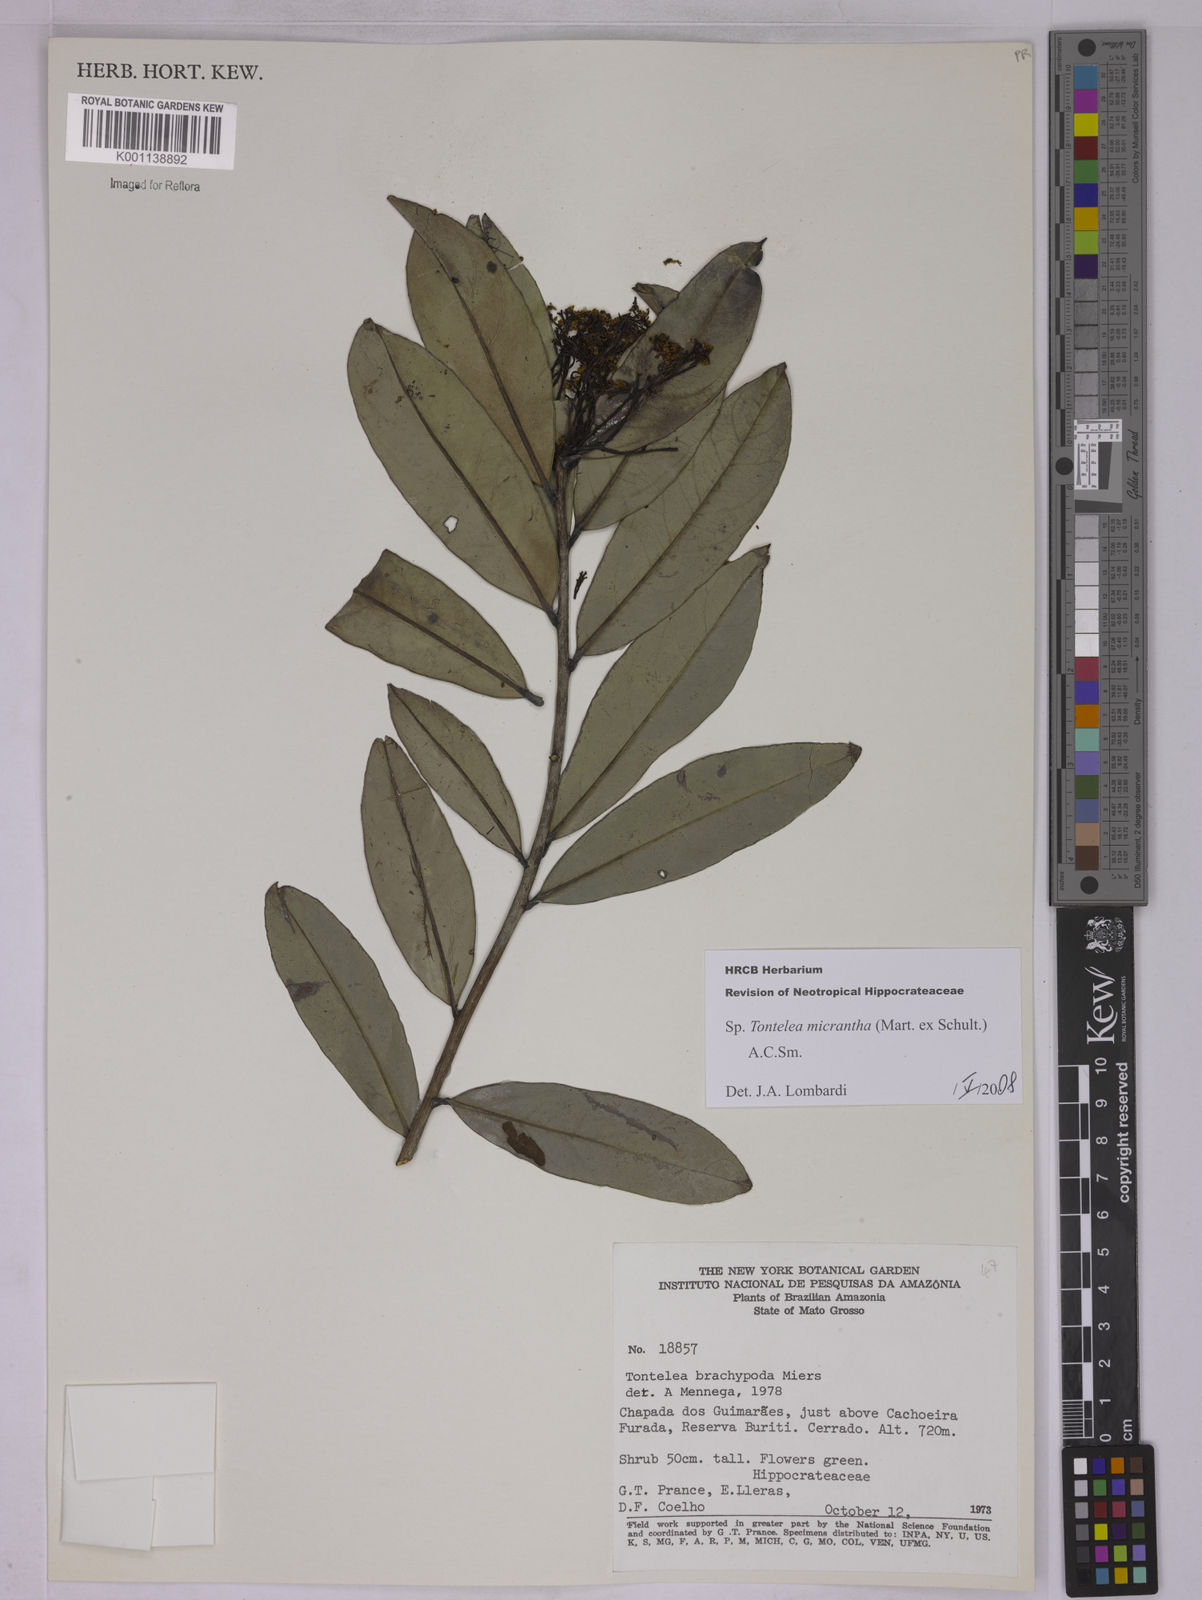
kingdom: Plantae
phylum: Tracheophyta
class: Magnoliopsida
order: Celastrales
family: Celastraceae
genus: Tontelea
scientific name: Tontelea micrantha
